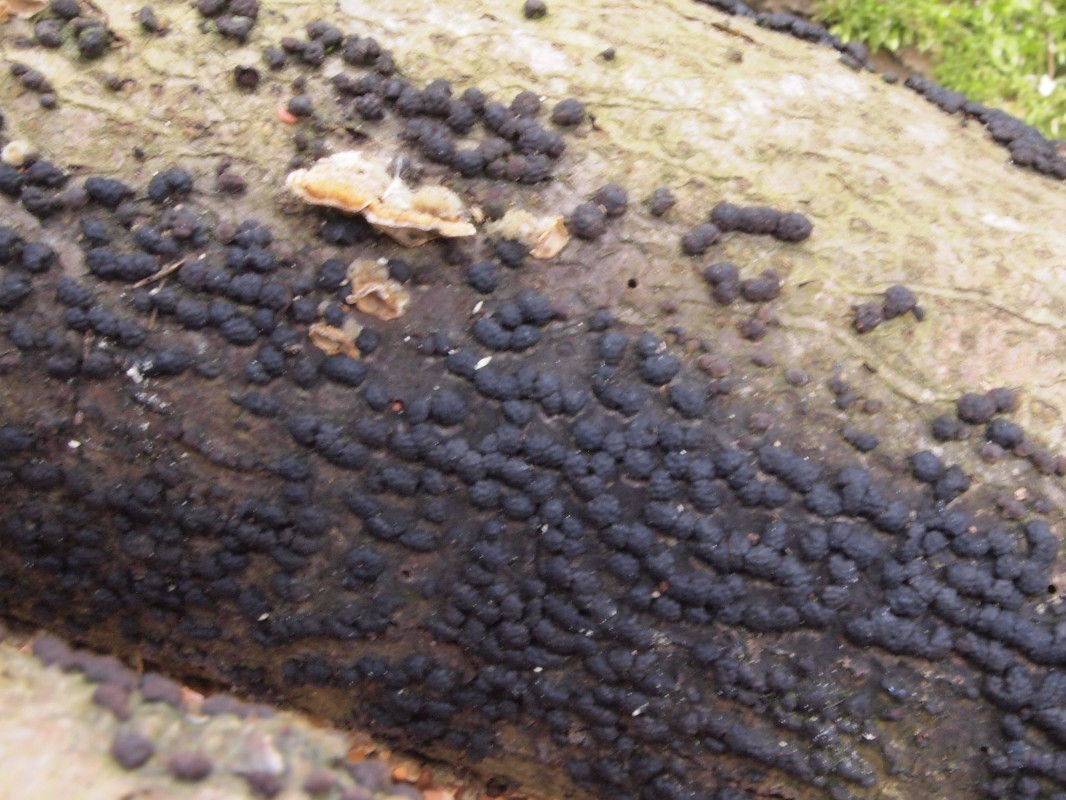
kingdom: Fungi
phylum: Ascomycota
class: Sordariomycetes
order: Xylariales
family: Hypoxylaceae
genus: Jackrogersella
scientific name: Jackrogersella cohaerens
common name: sammenflydende kulbær
